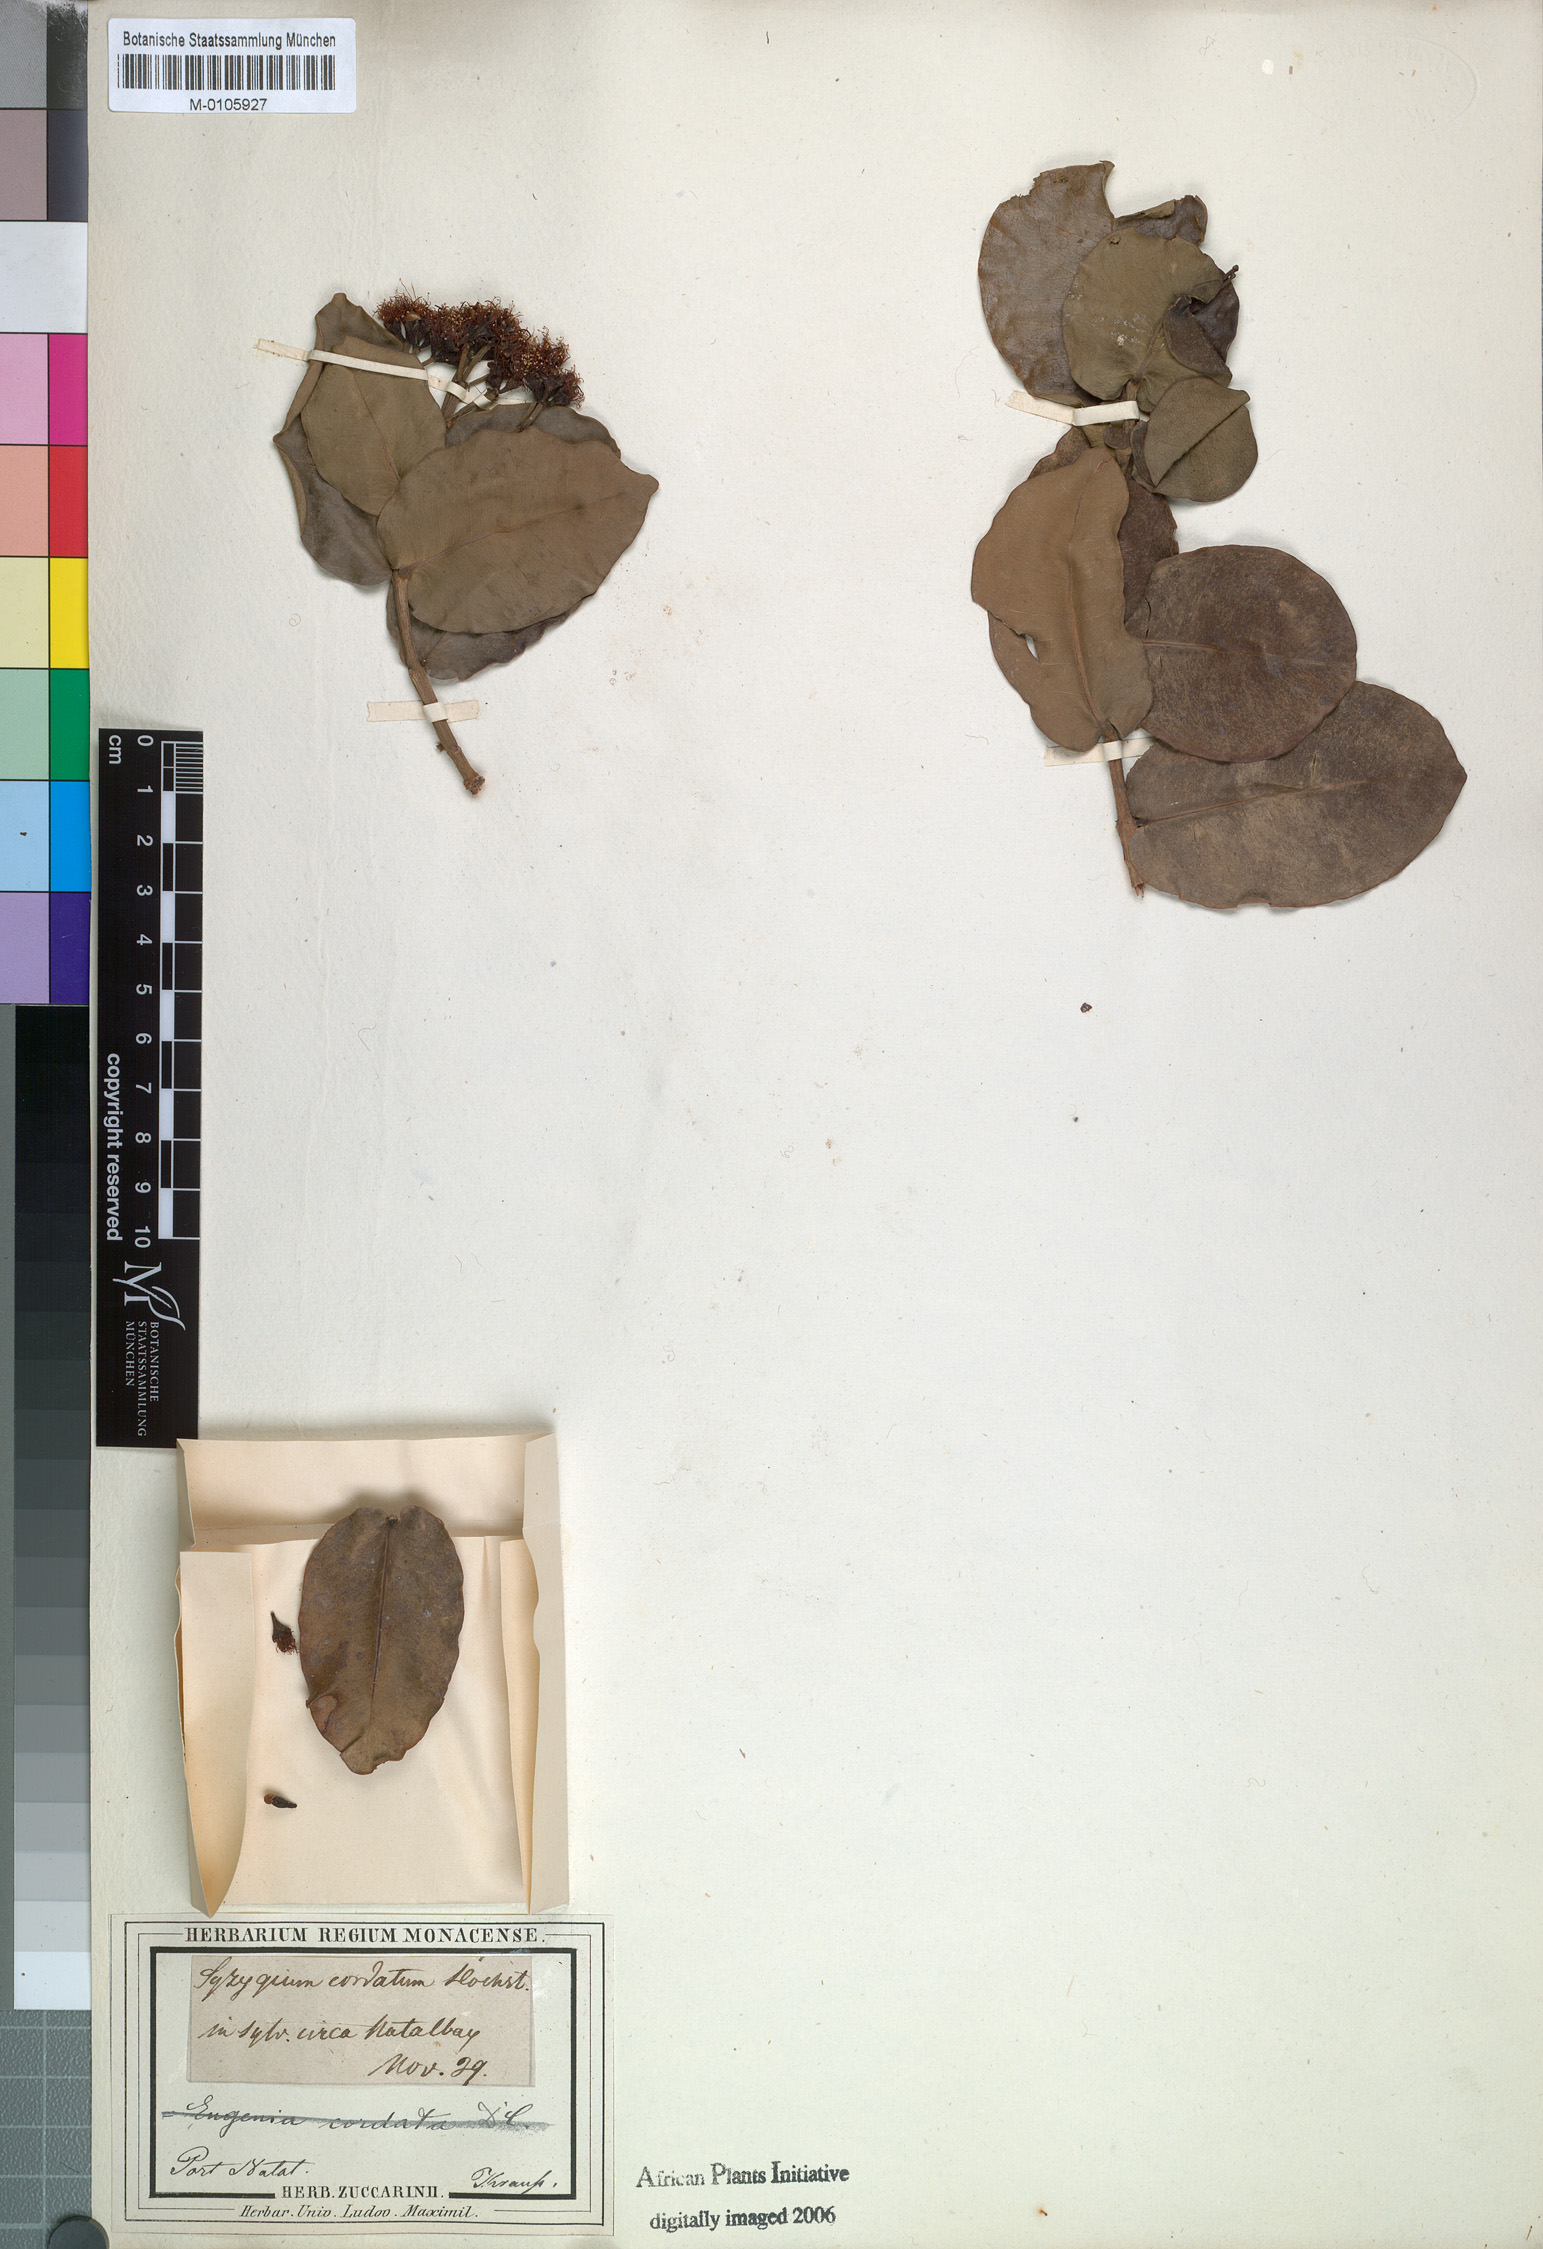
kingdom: Plantae
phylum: Tracheophyta
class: Magnoliopsida
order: Myrtales
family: Myrtaceae
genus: Syzygium
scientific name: Syzygium cordatum
